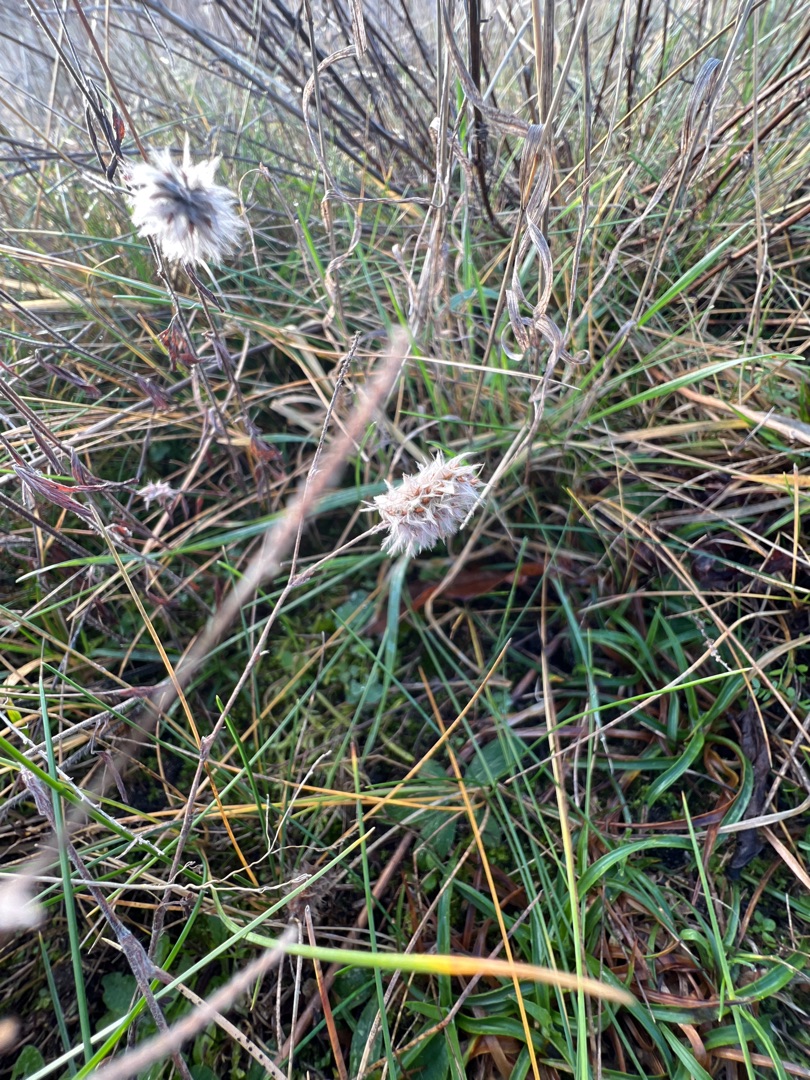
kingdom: Plantae
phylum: Tracheophyta
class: Magnoliopsida
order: Fabales
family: Fabaceae
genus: Trifolium
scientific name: Trifolium arvense
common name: Hare-kløver
